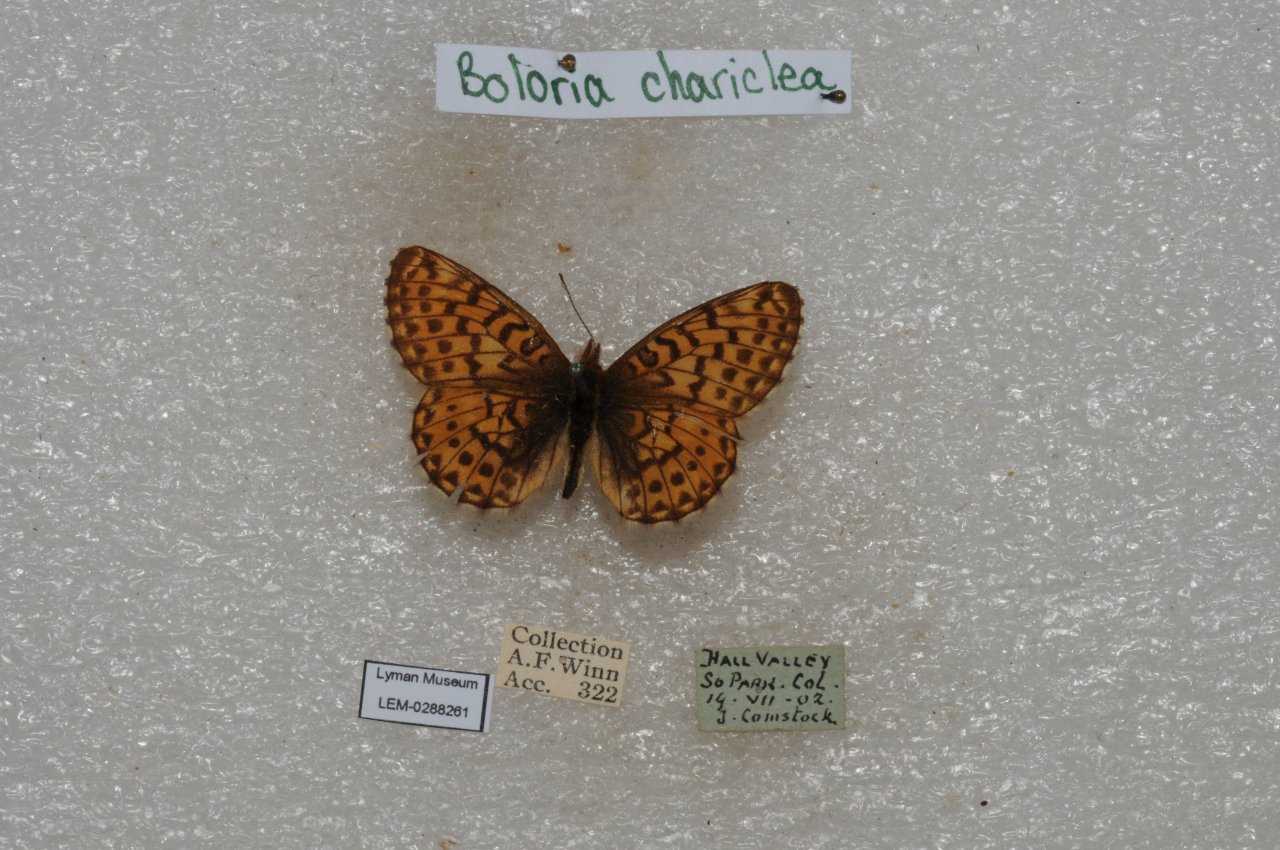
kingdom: Animalia
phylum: Arthropoda
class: Insecta
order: Lepidoptera
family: Nymphalidae
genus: Boloria
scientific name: Boloria chariclea
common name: Arctic Fritillary
